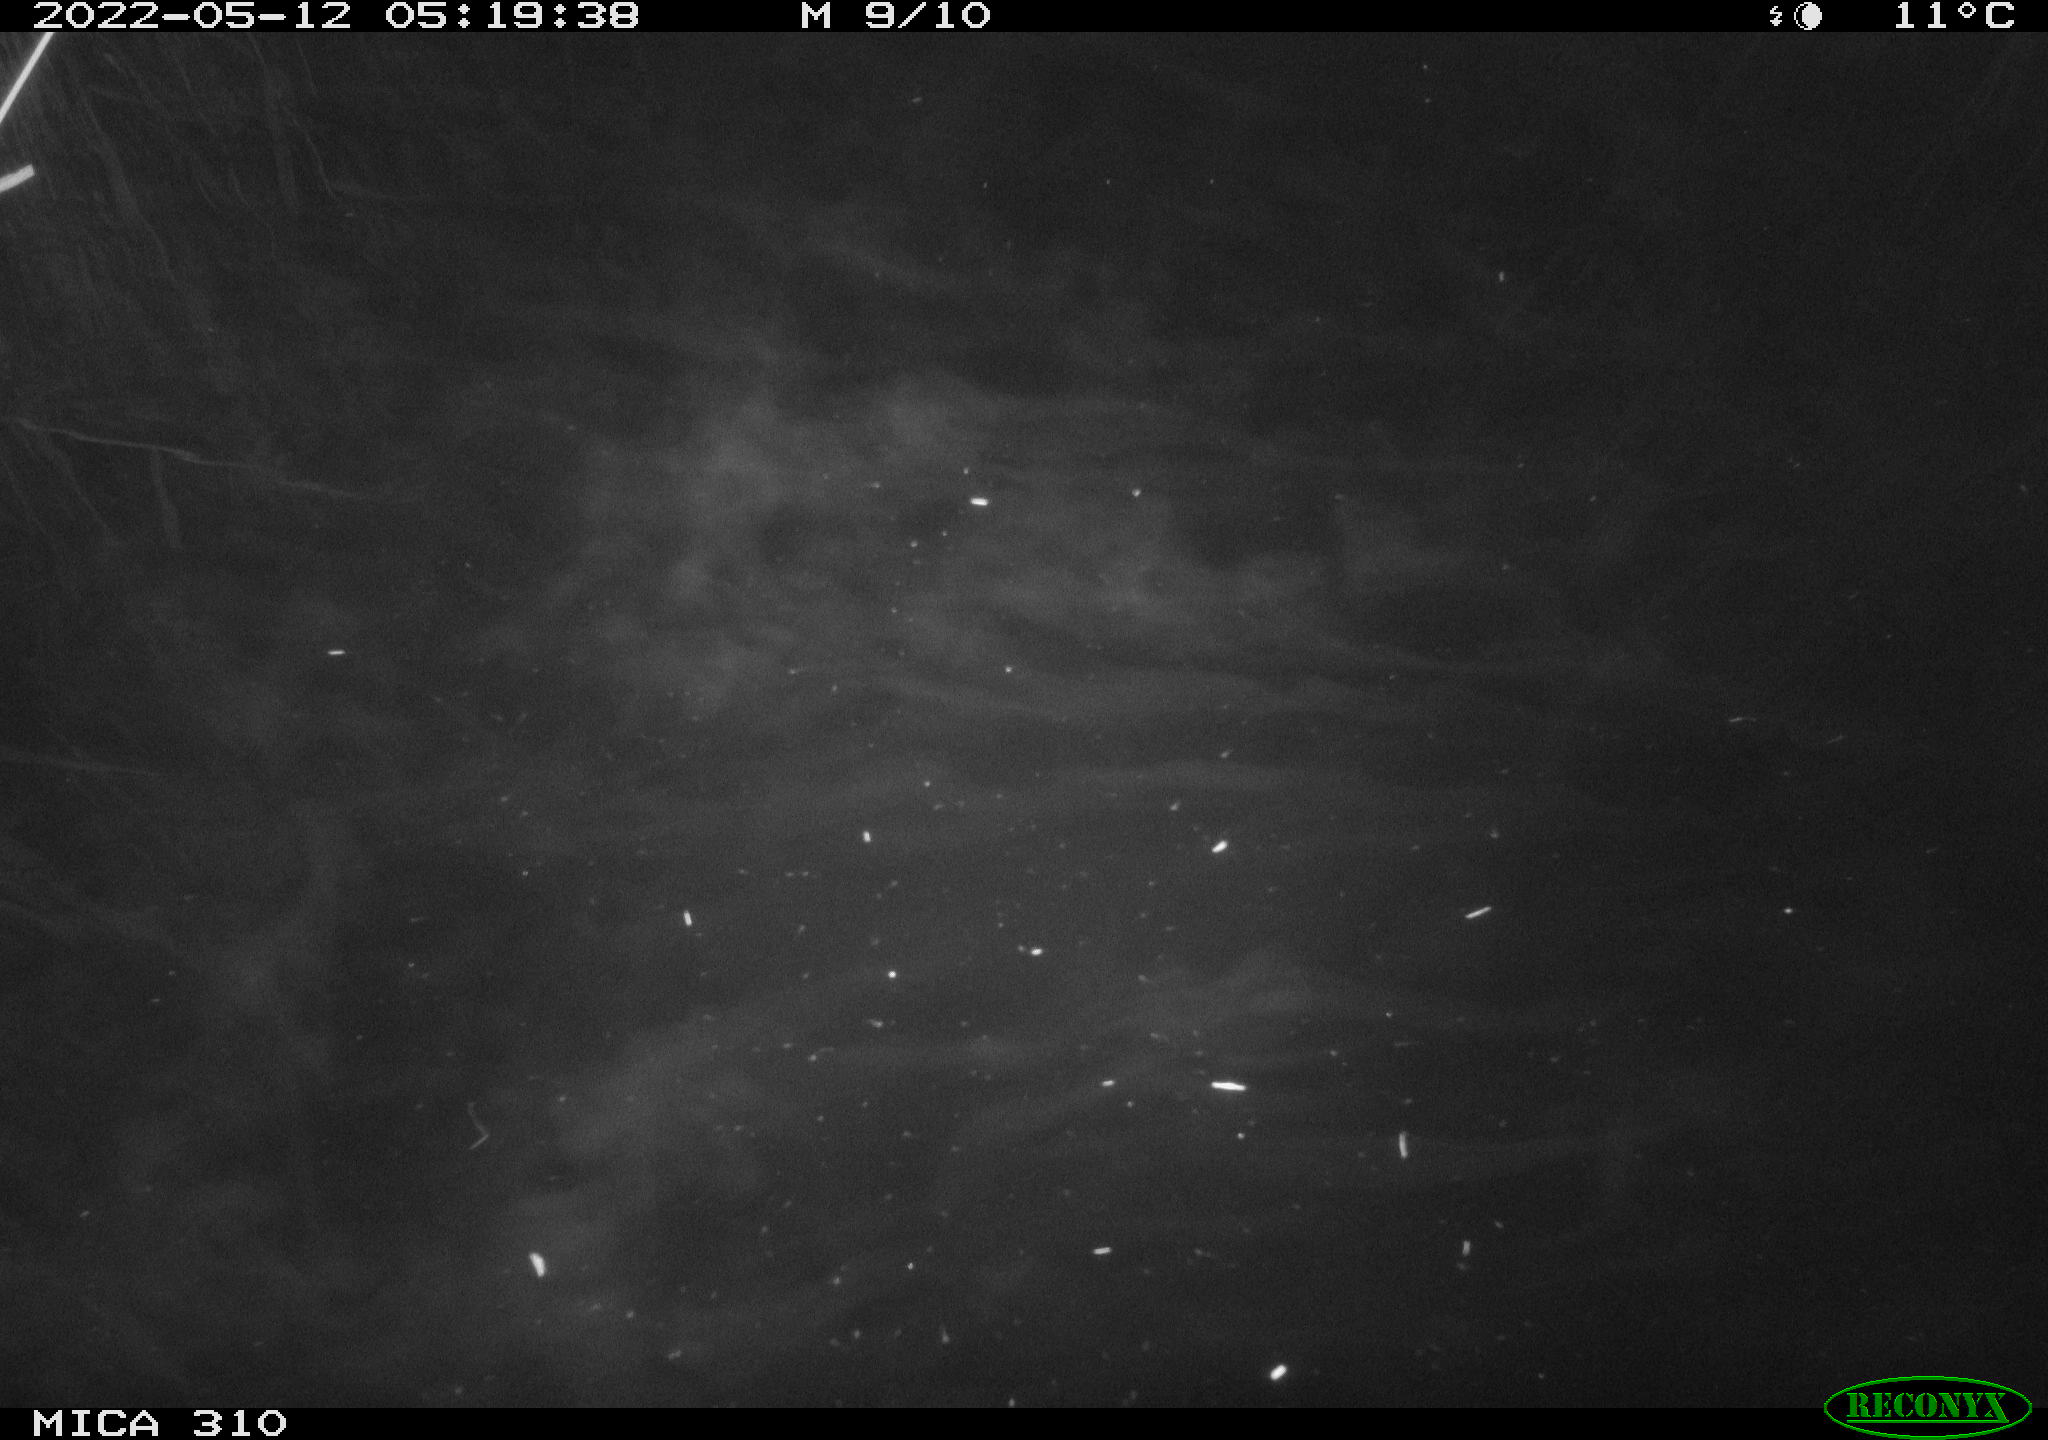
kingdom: Animalia
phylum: Chordata
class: Aves
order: Gruiformes
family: Rallidae
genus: Gallinula
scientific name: Gallinula chloropus
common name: Common moorhen
